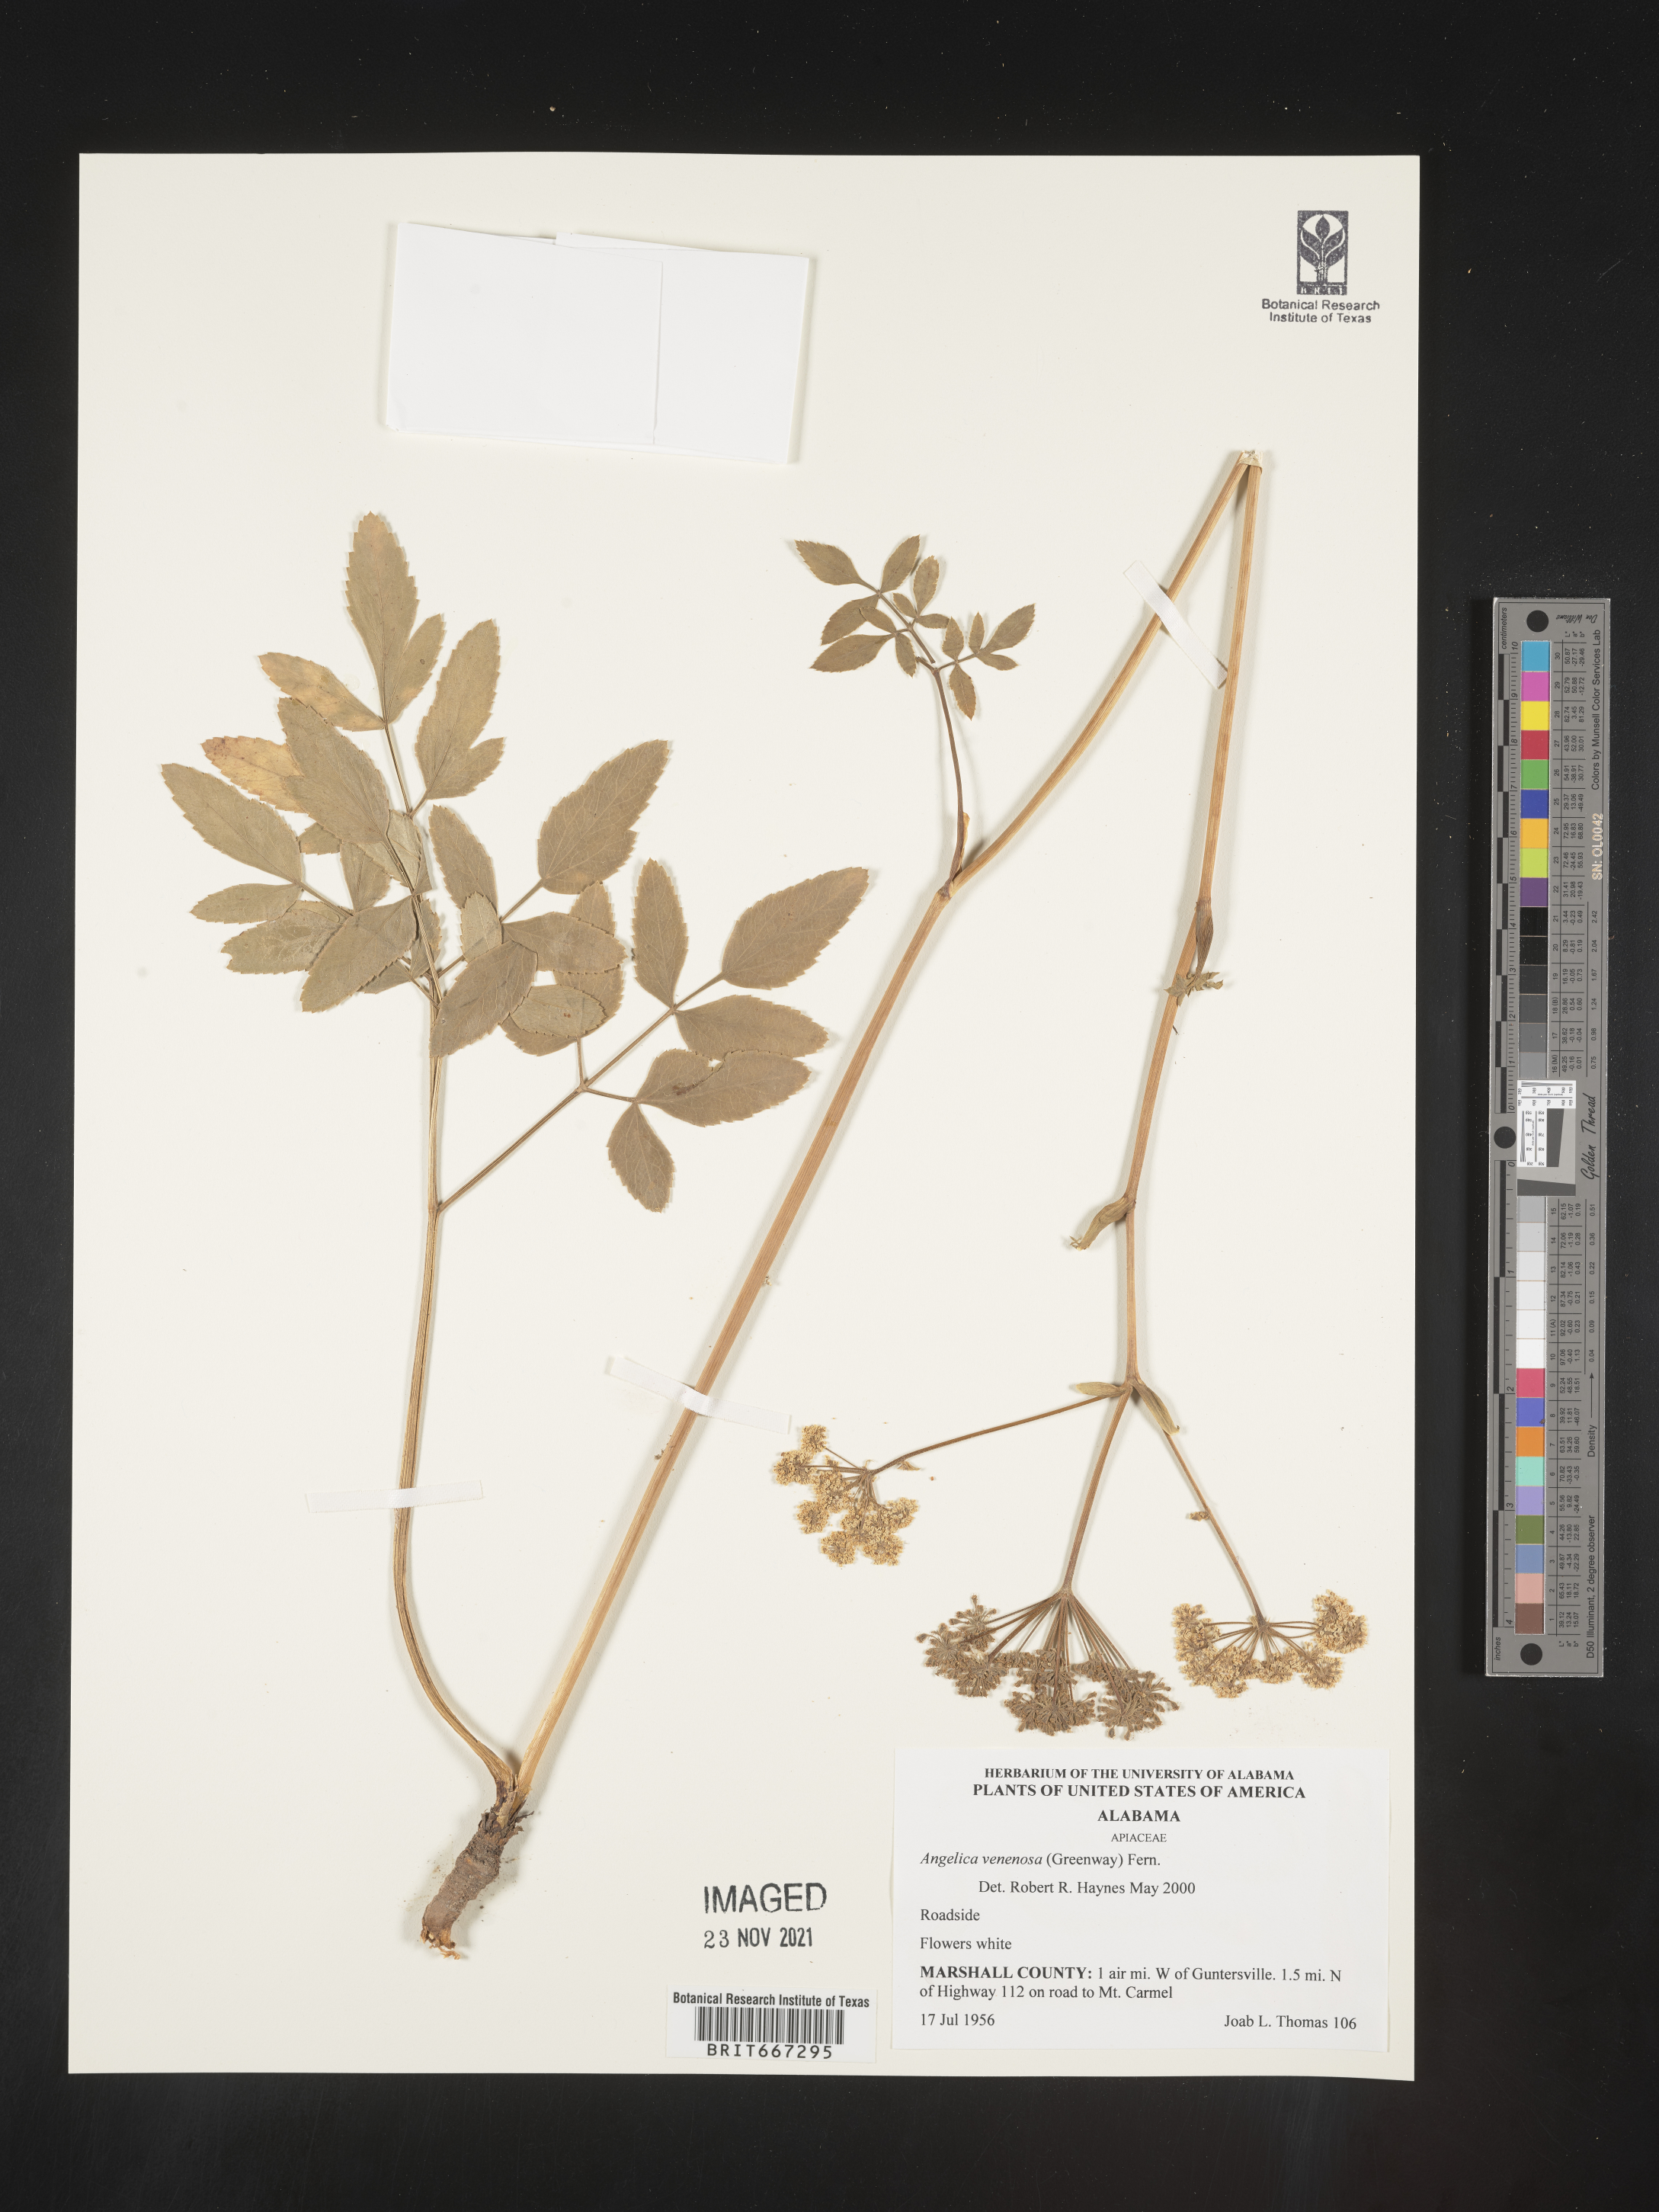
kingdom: Plantae
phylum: Tracheophyta
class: Magnoliopsida
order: Apiales
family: Apiaceae
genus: Angelica
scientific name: Angelica venenosa
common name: Hairy angelica
